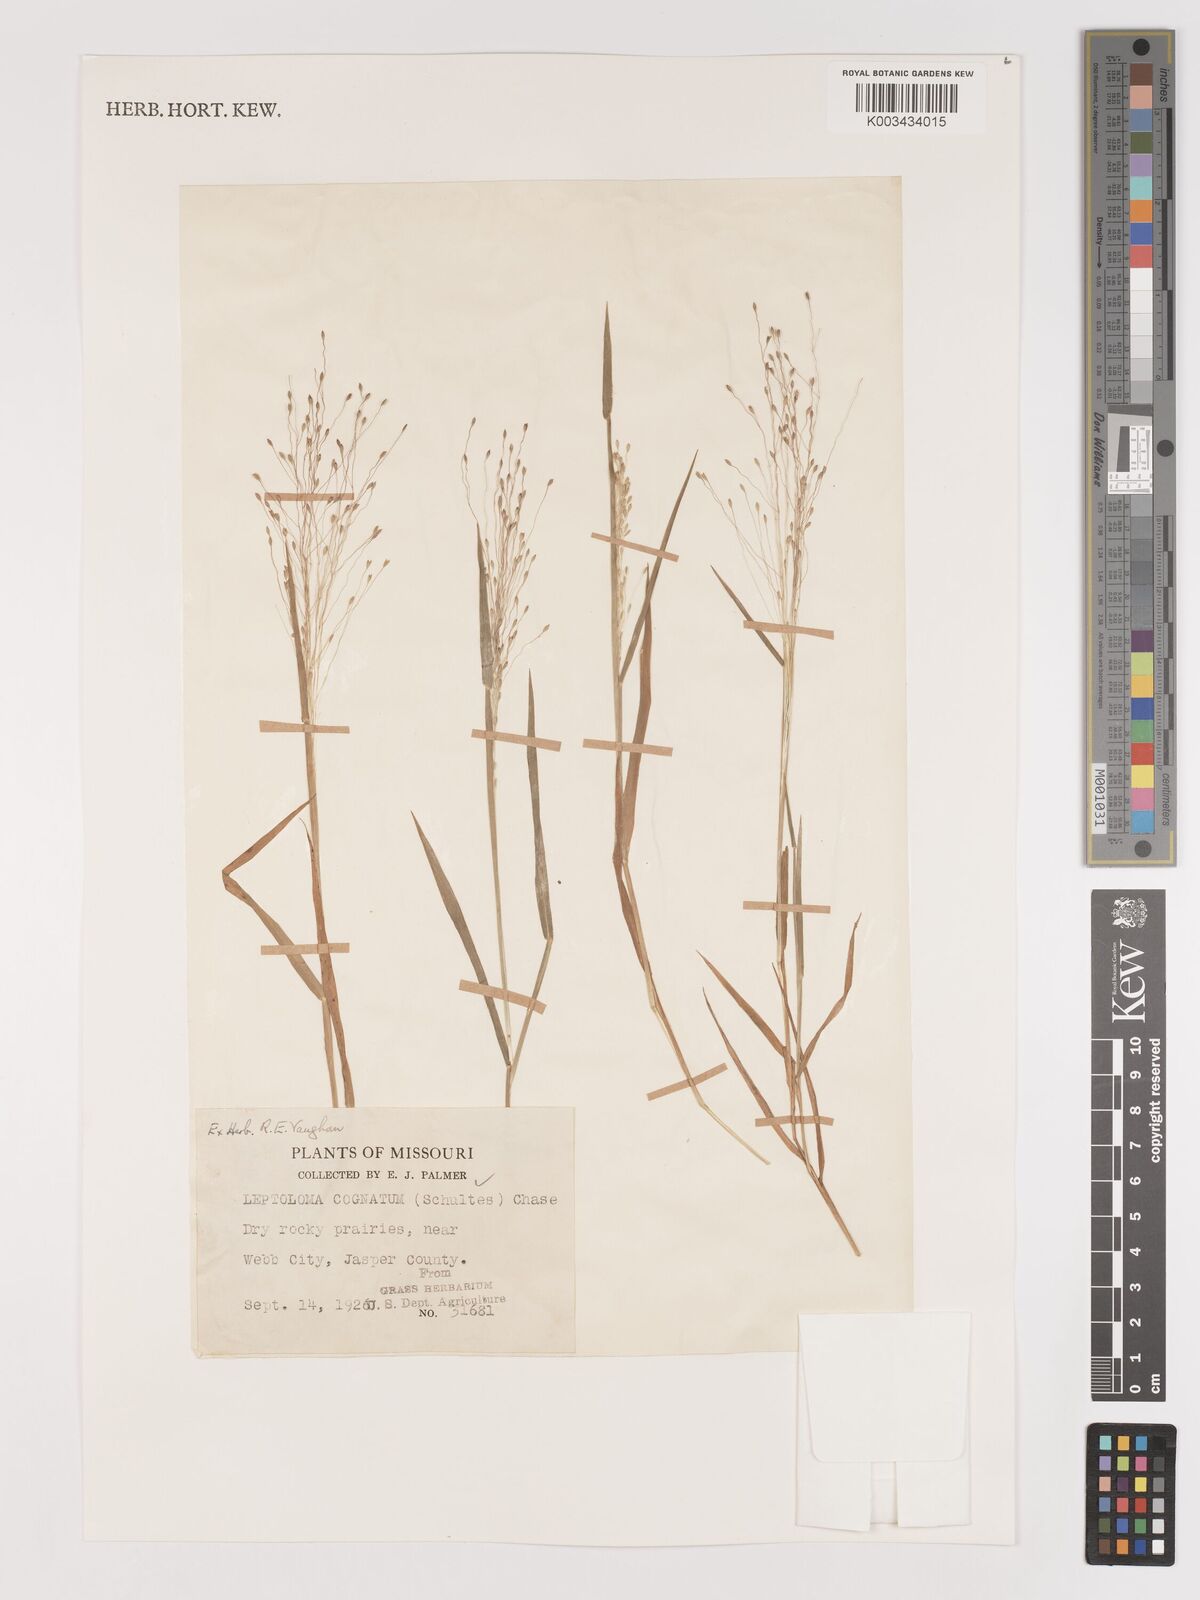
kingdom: Plantae
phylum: Tracheophyta
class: Liliopsida
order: Poales
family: Poaceae
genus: Digitaria
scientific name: Digitaria cognata
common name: Fall witchgrass
